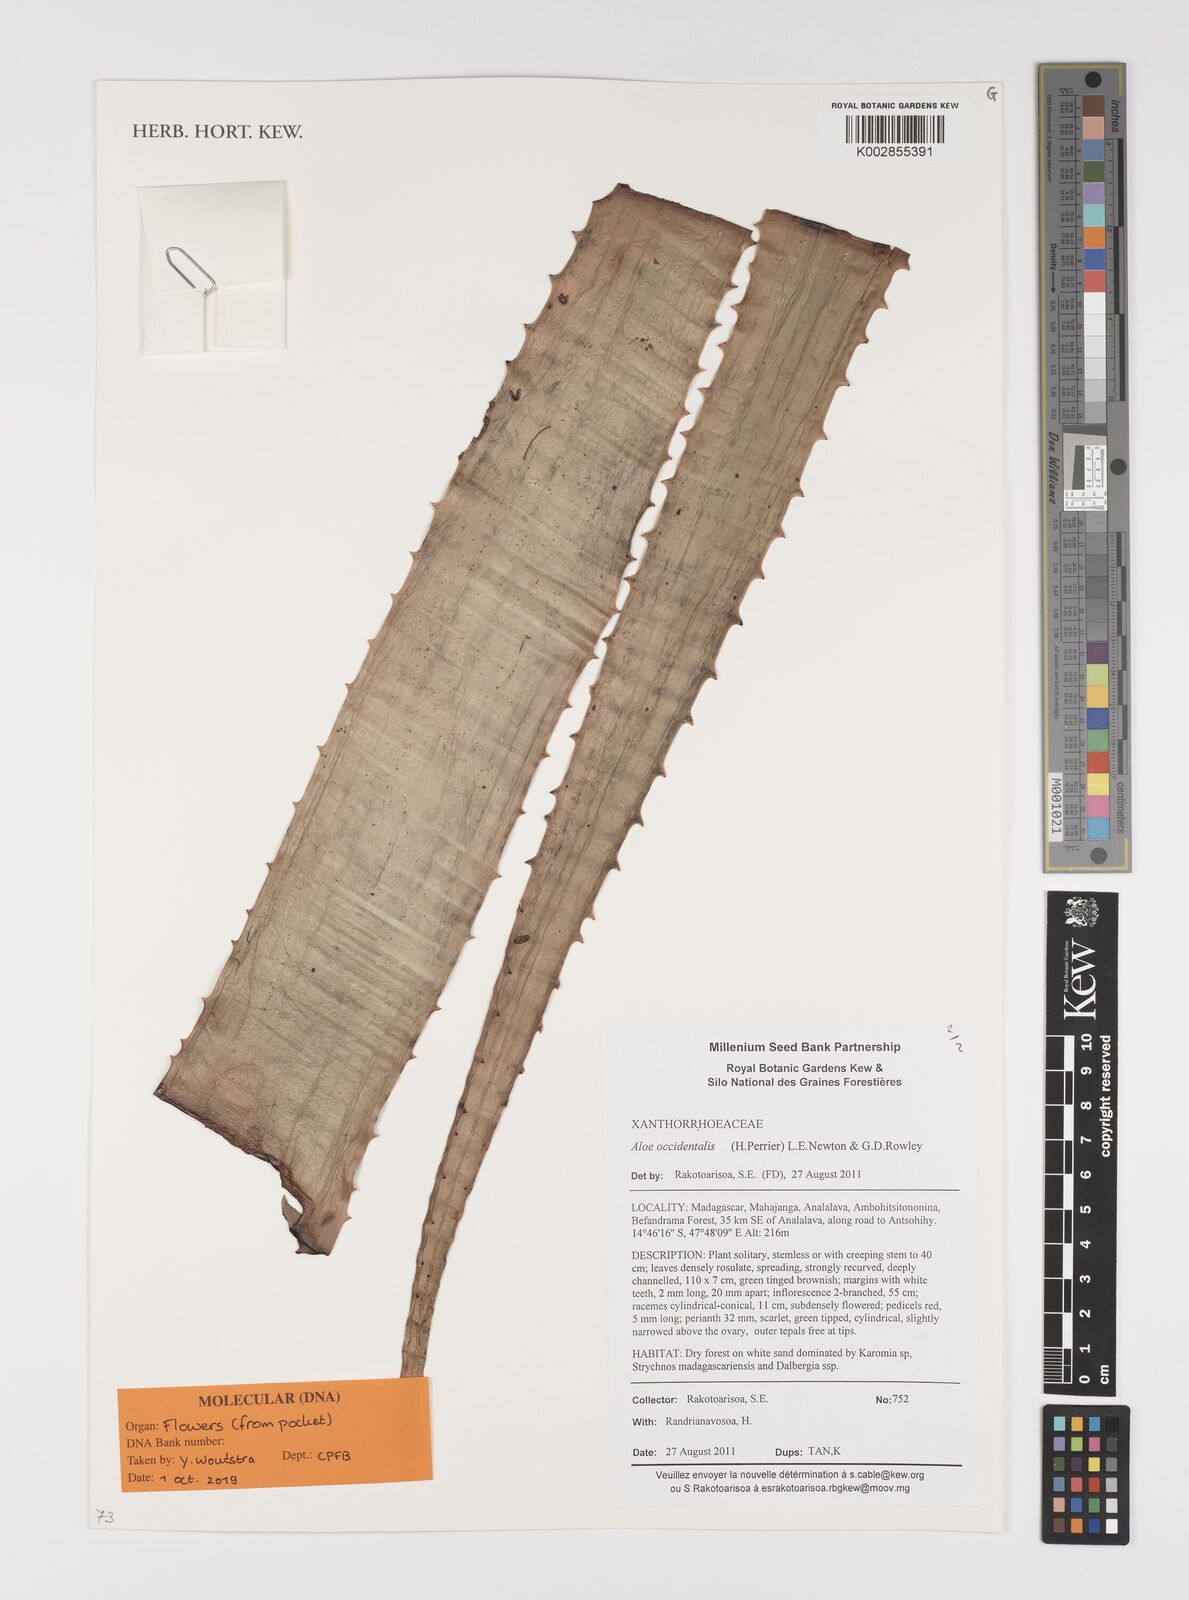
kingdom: Plantae
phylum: Tracheophyta
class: Liliopsida
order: Asparagales
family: Asphodelaceae
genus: Aloe
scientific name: Aloe occidentalis
